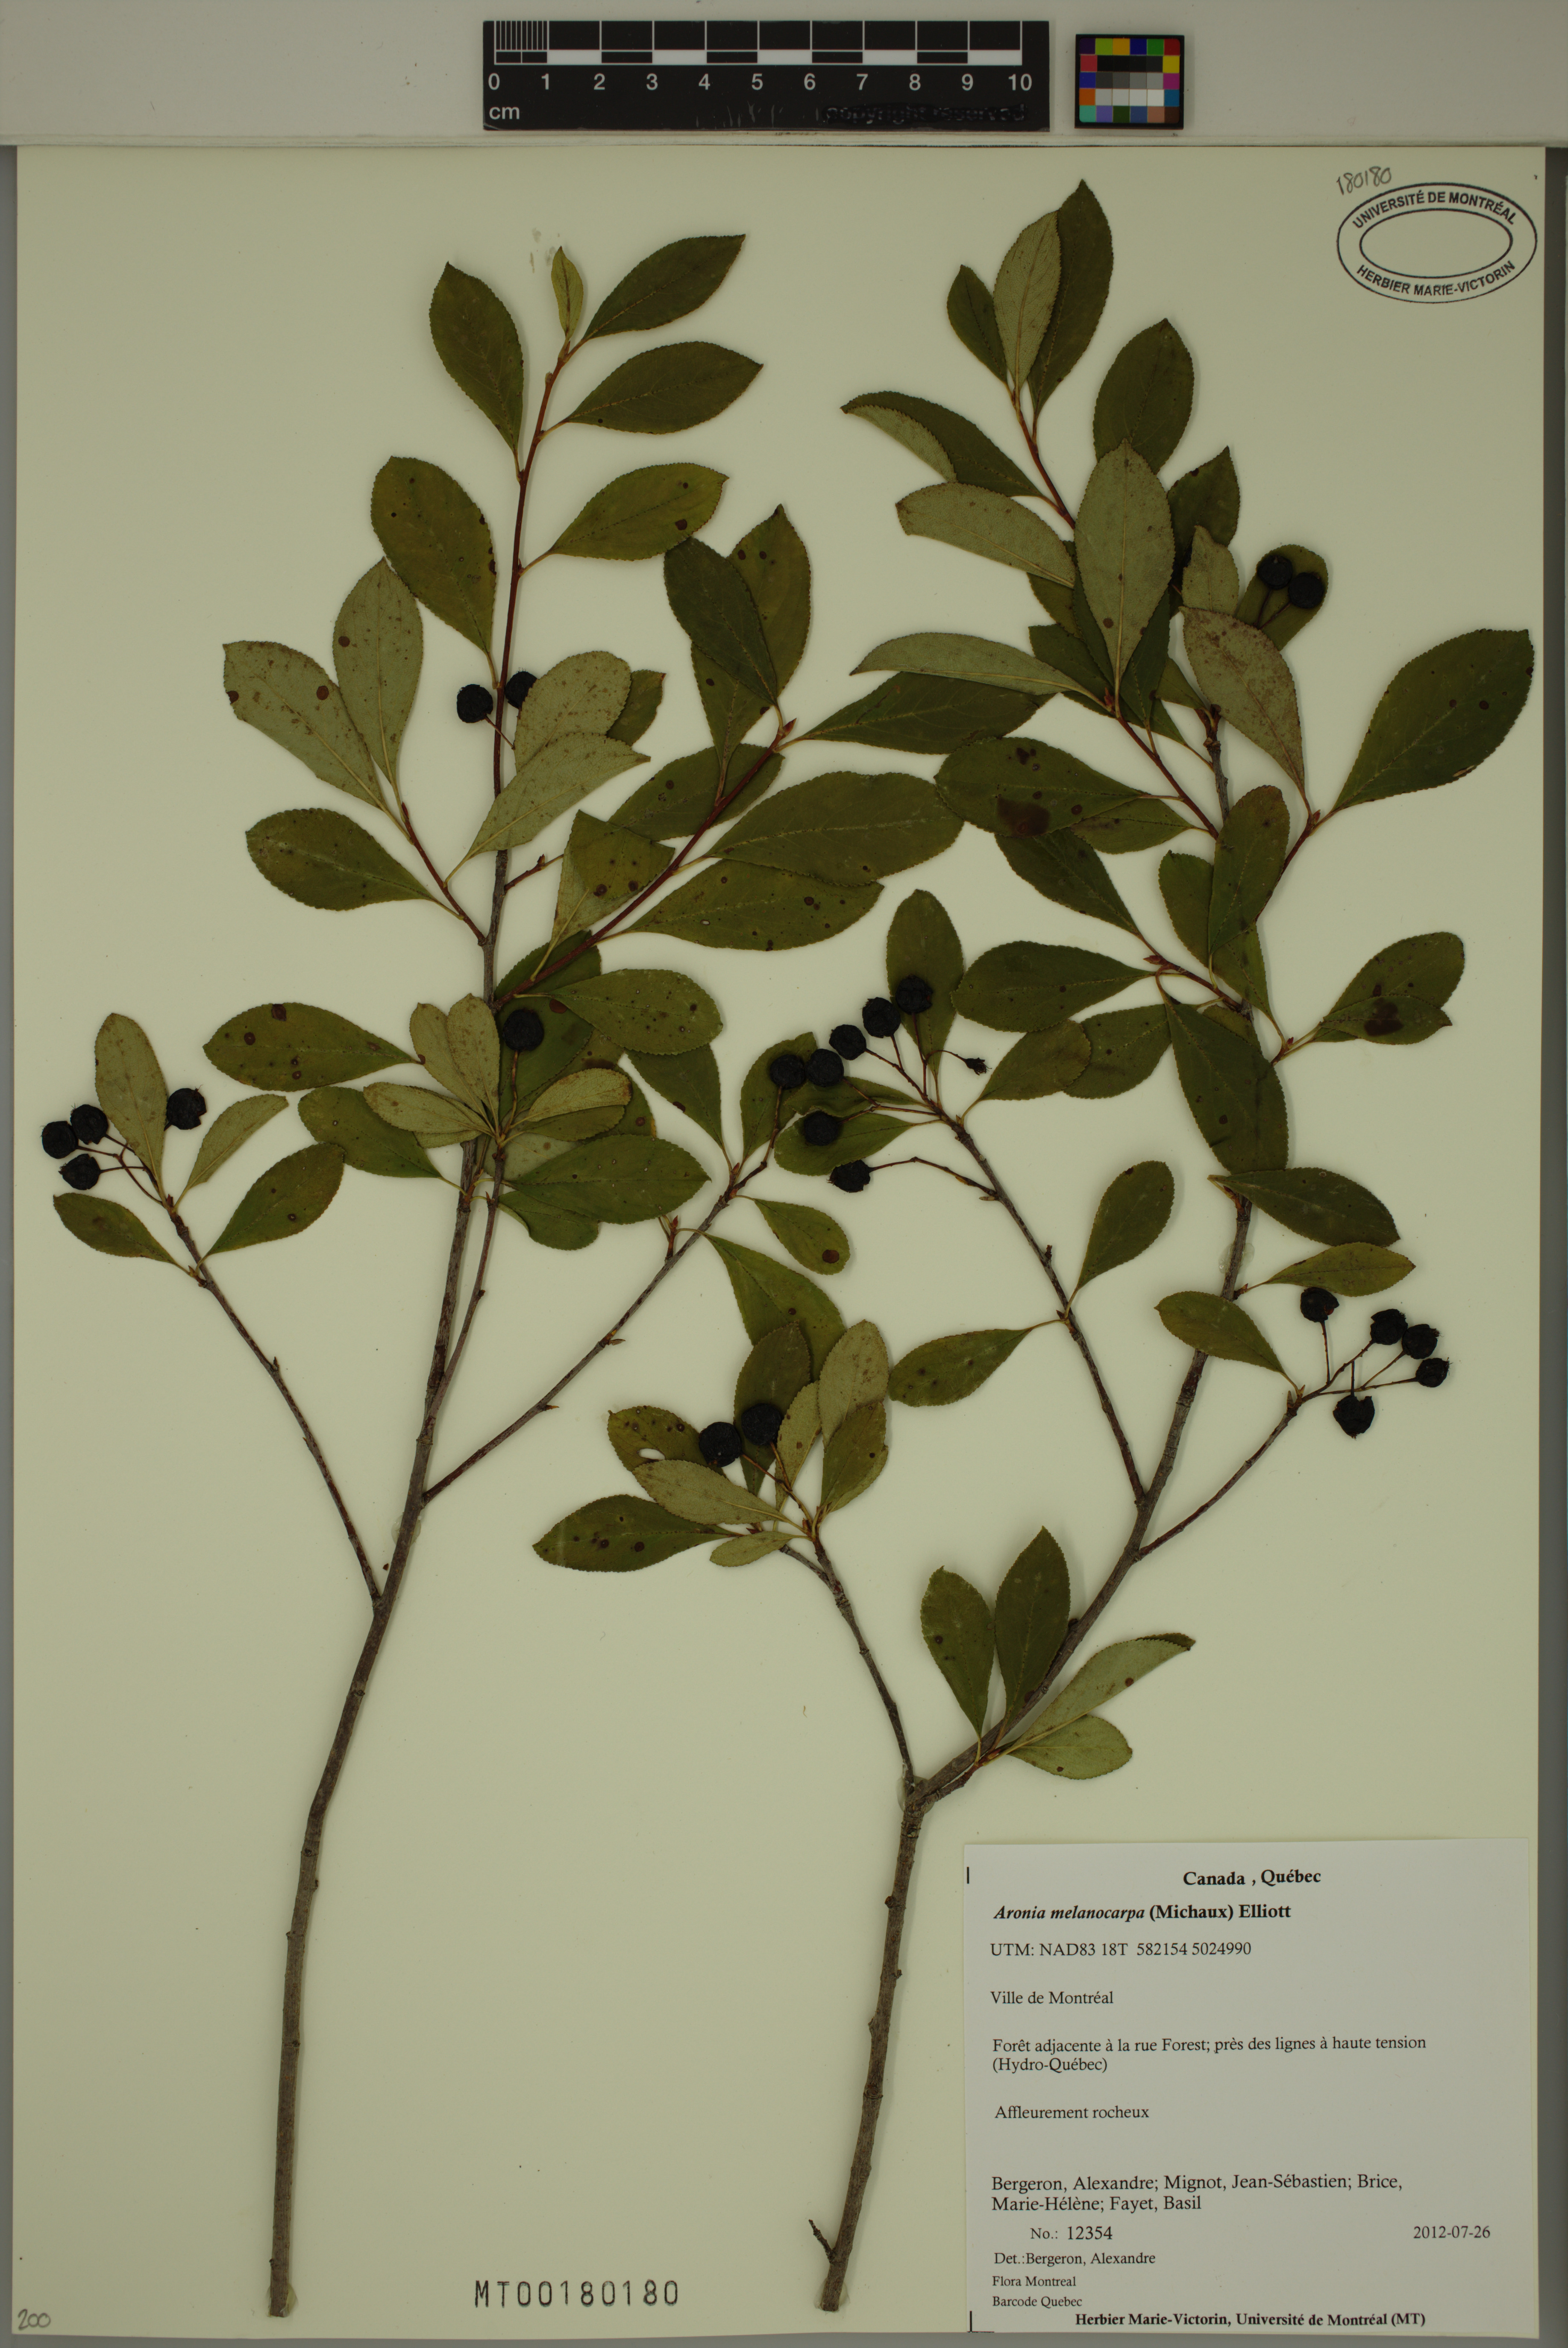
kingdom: Plantae
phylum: Tracheophyta
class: Magnoliopsida
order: Rosales
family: Rosaceae
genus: Aronia
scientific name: Aronia melanocarpa
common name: Black chokeberry
